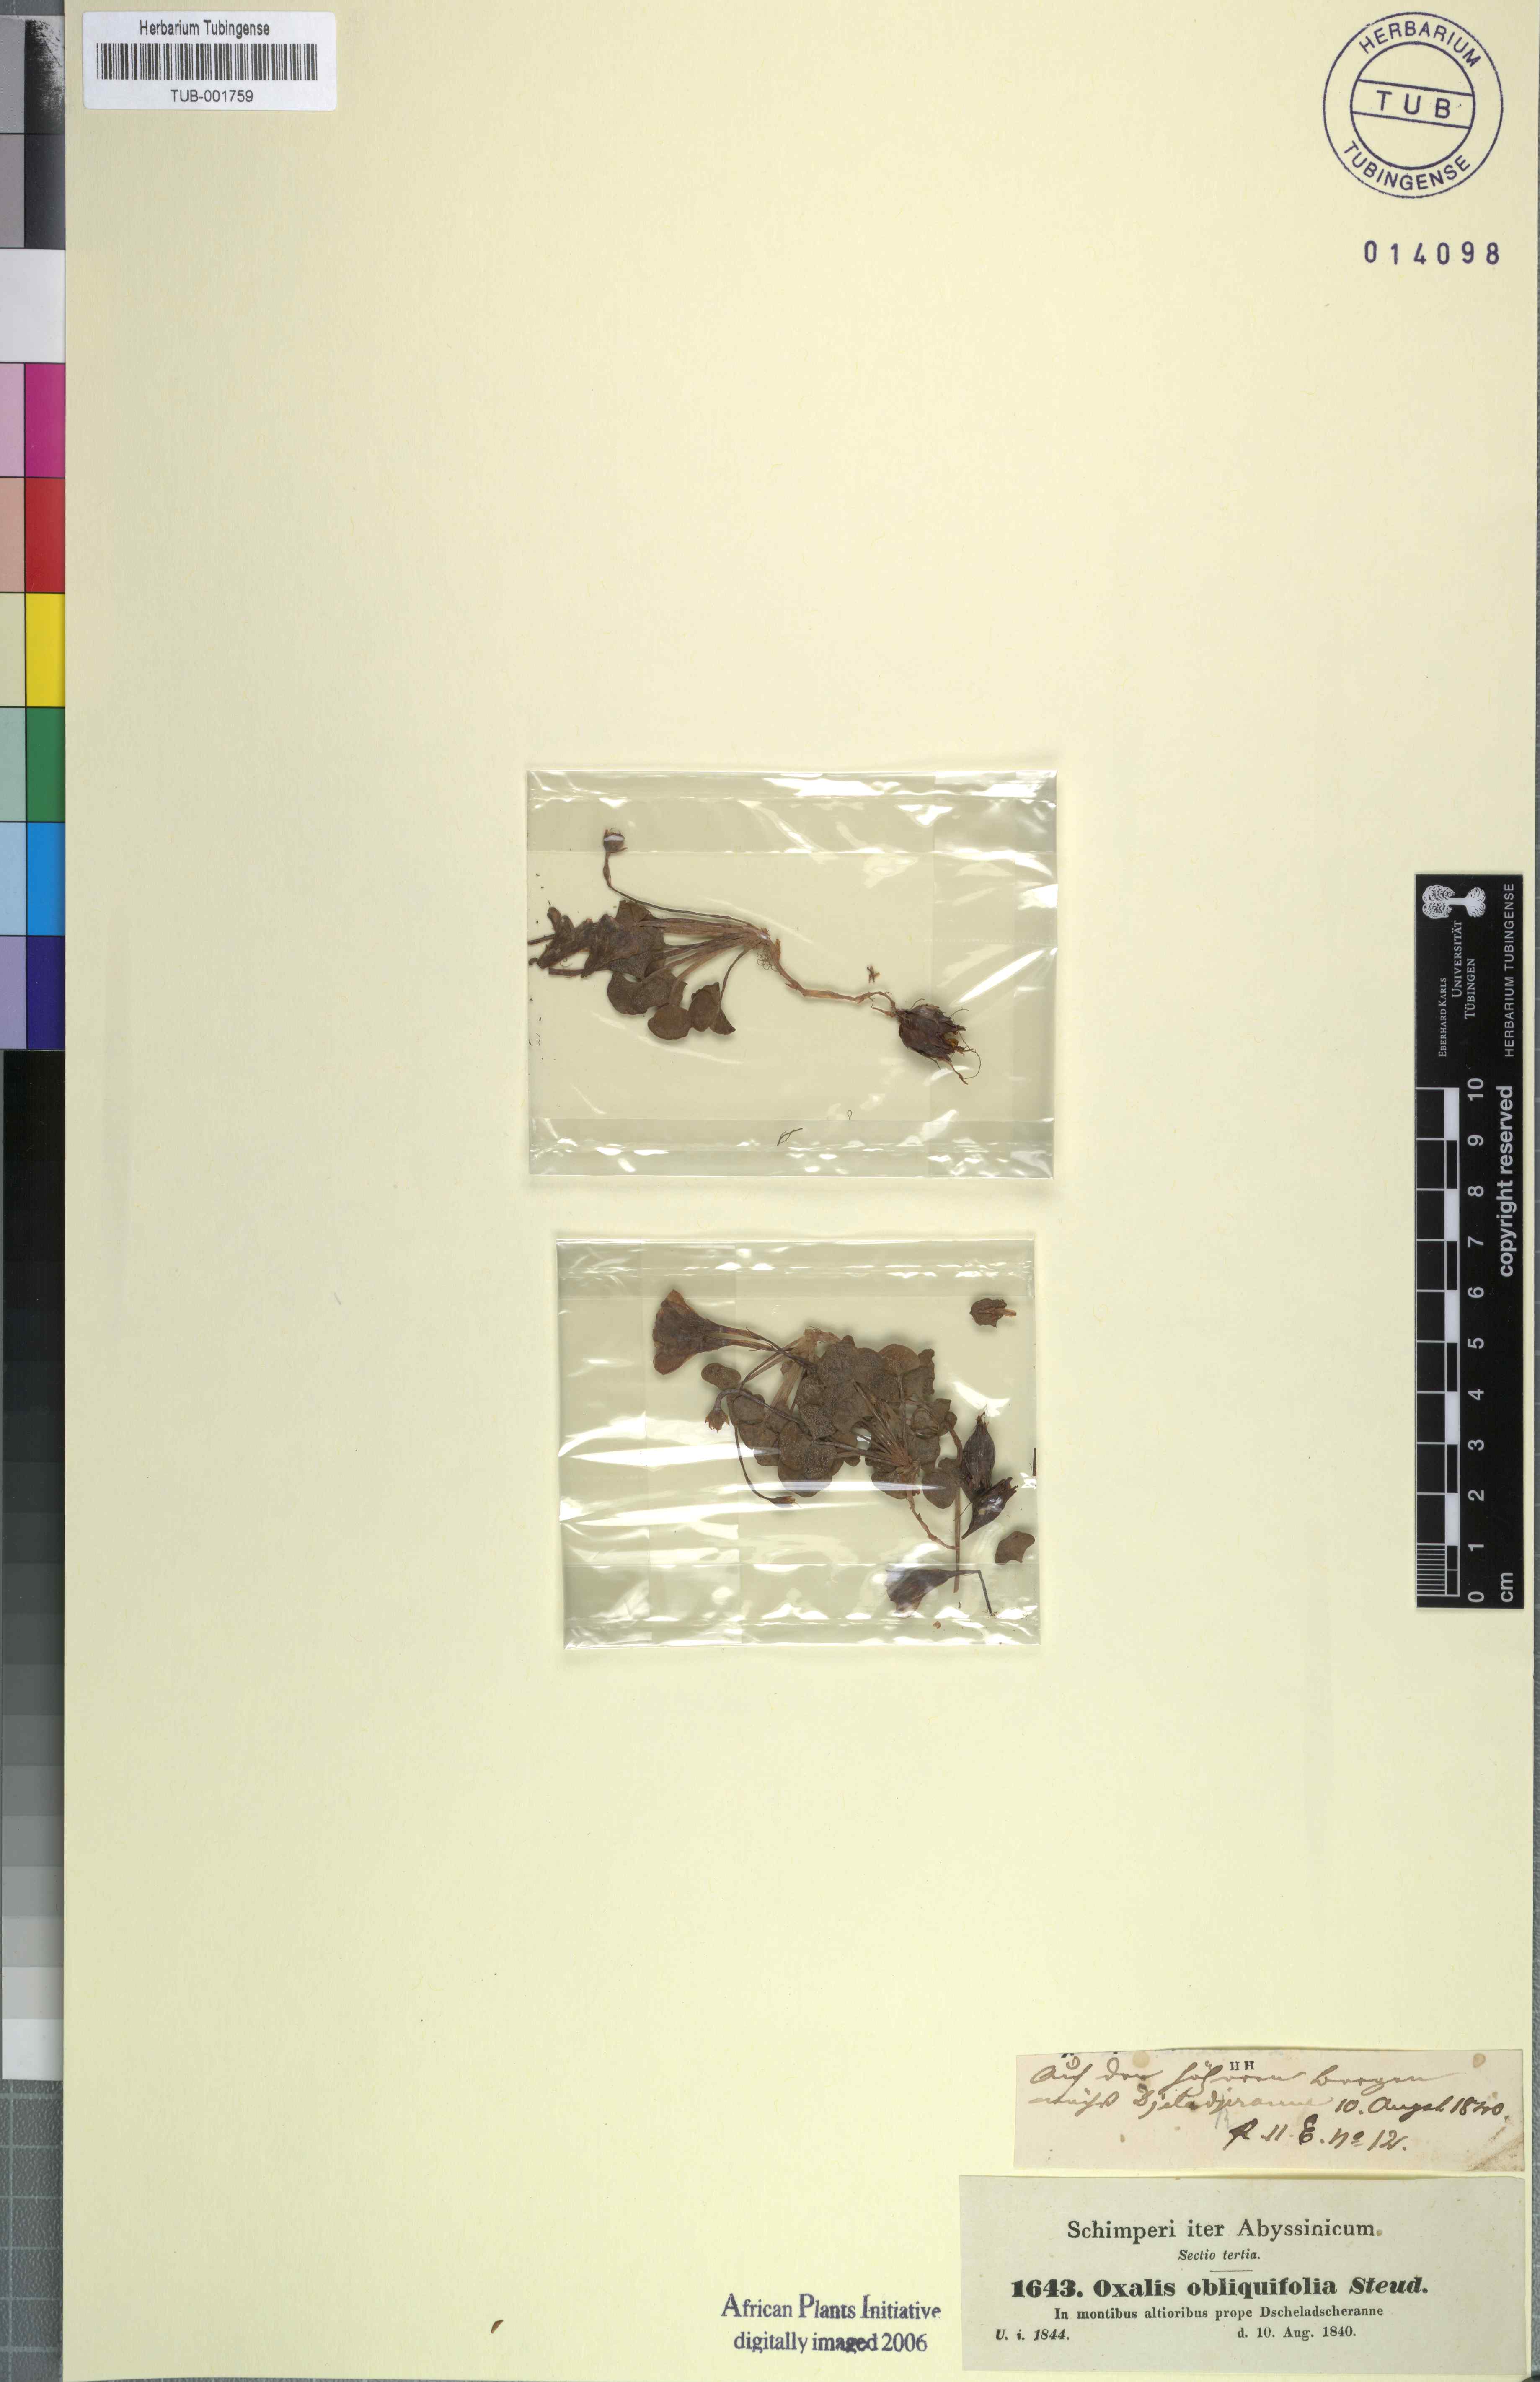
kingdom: Plantae
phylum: Tracheophyta
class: Magnoliopsida
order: Oxalidales
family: Oxalidaceae
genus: Oxalis
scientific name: Oxalis obliquifolia
